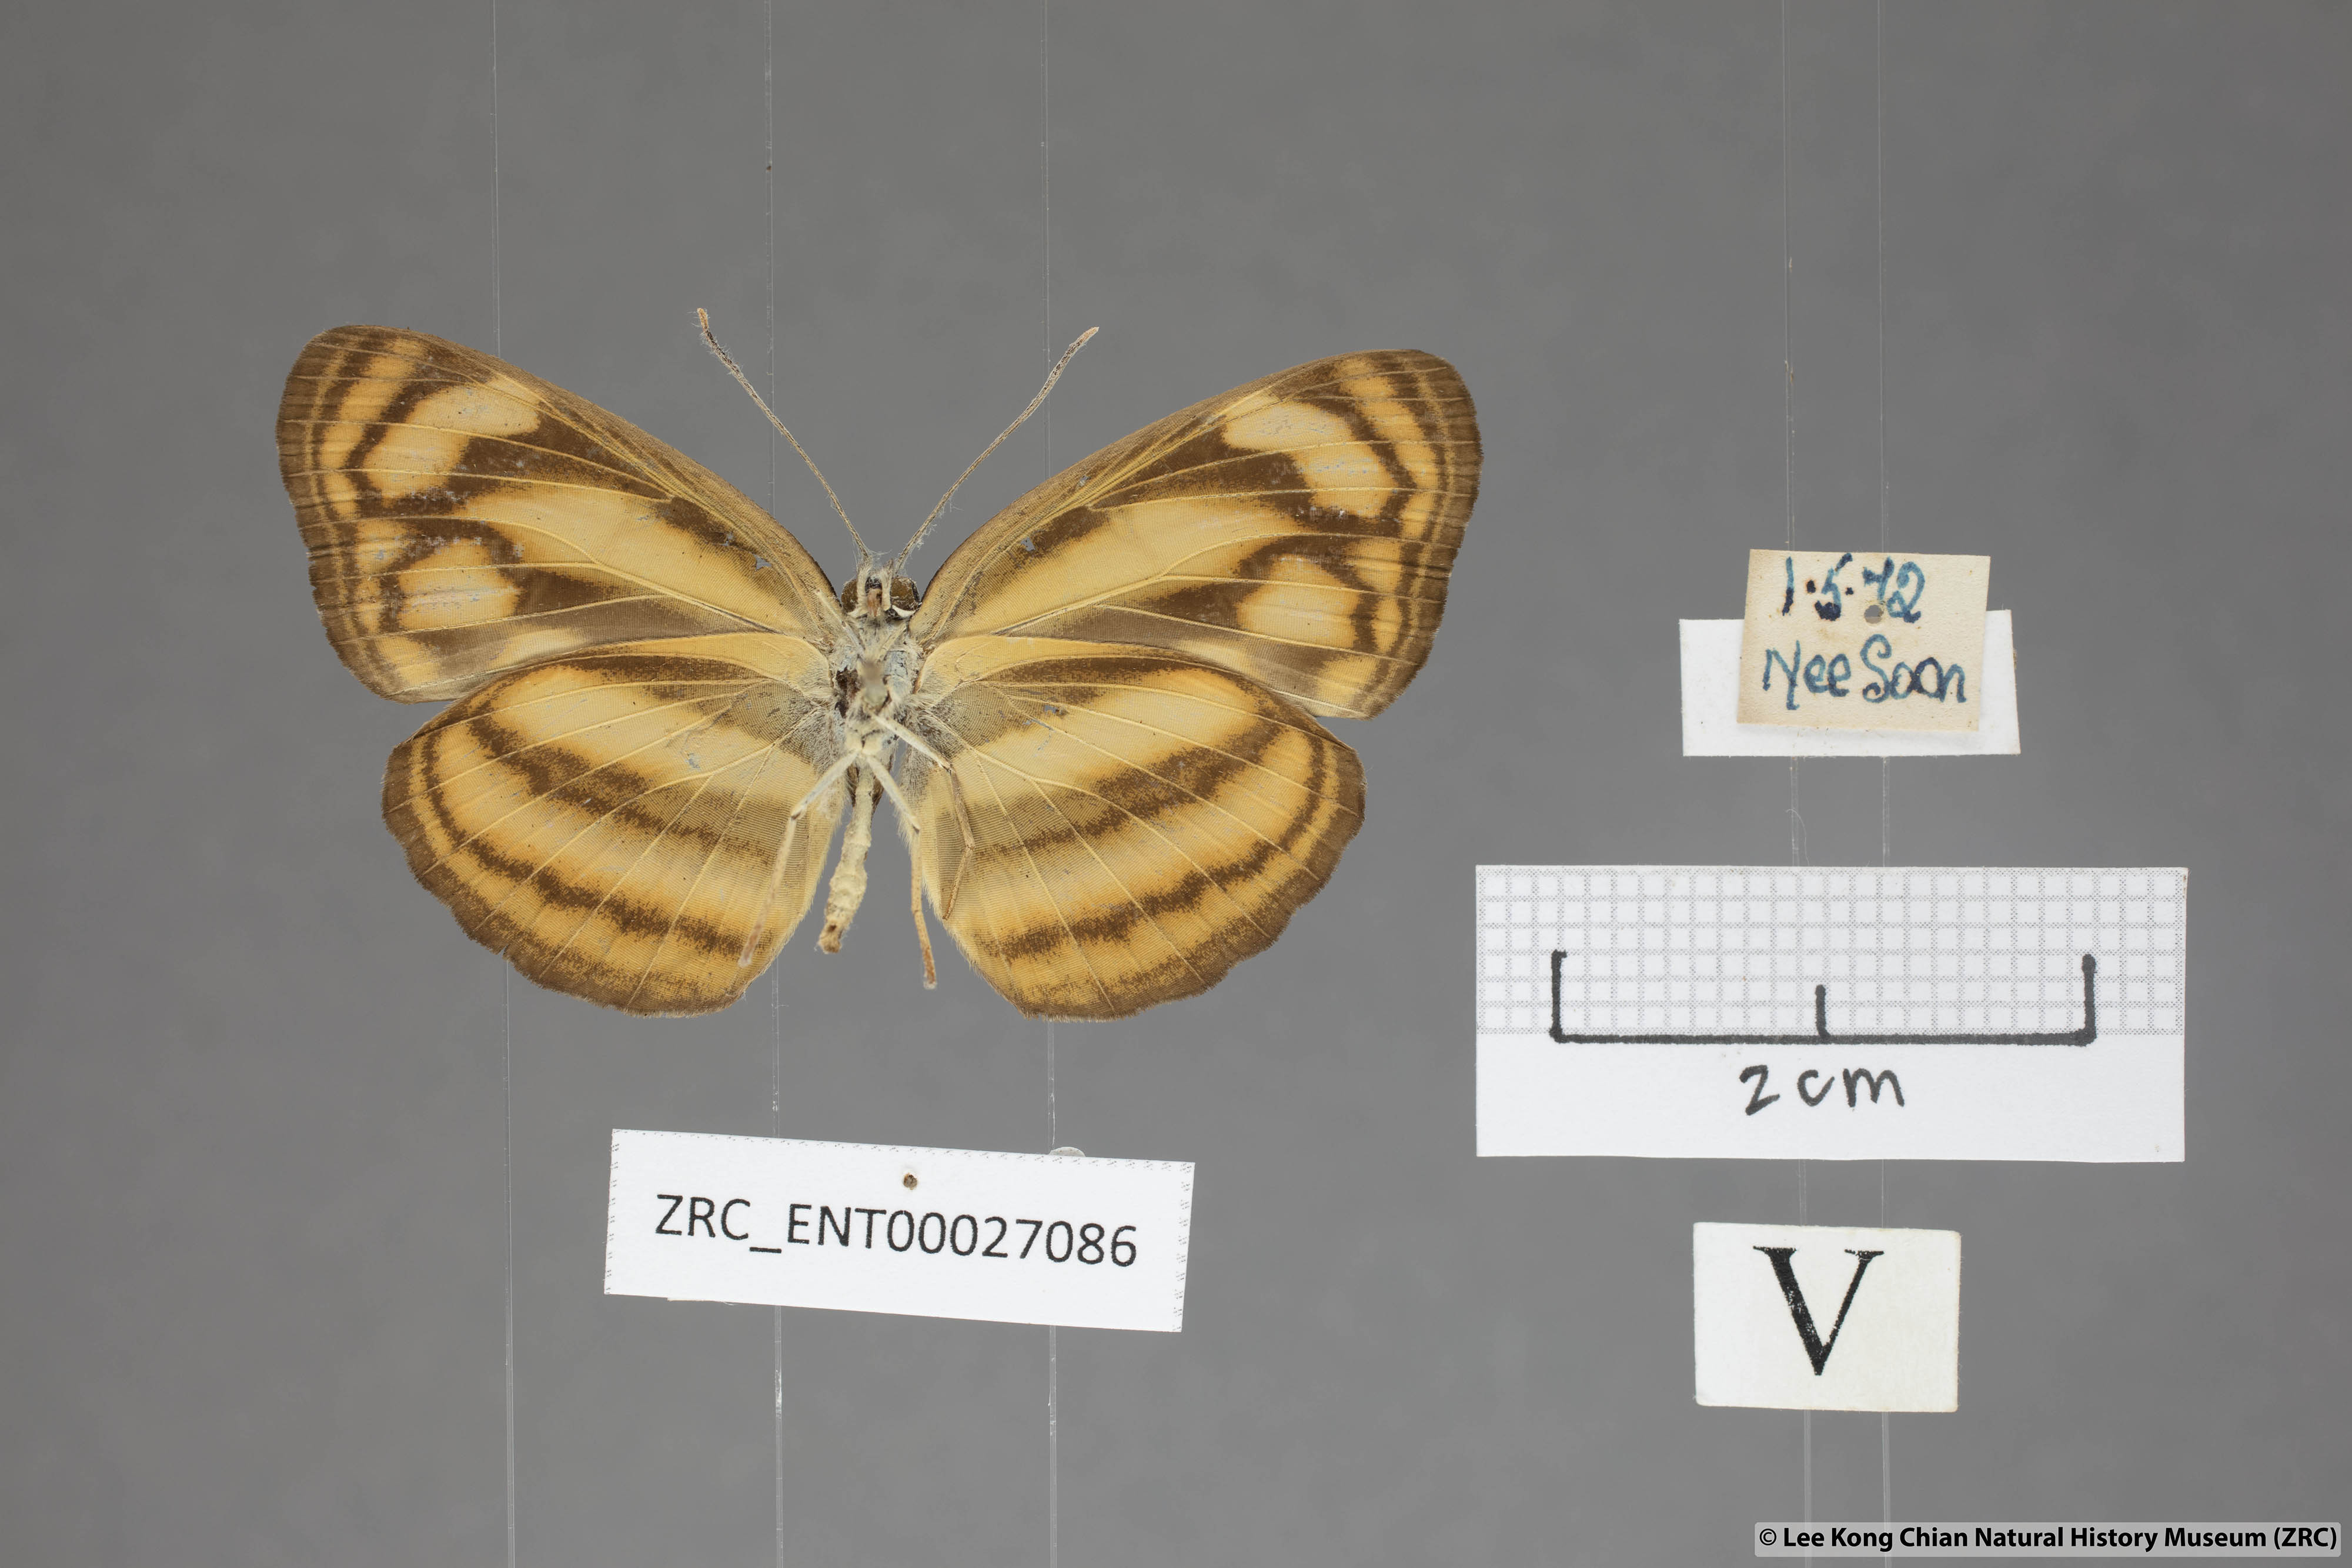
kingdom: Animalia
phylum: Arthropoda
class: Insecta
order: Lepidoptera
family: Nymphalidae
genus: Lasippa
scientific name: Lasippa heliodore
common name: Burmese lascar
